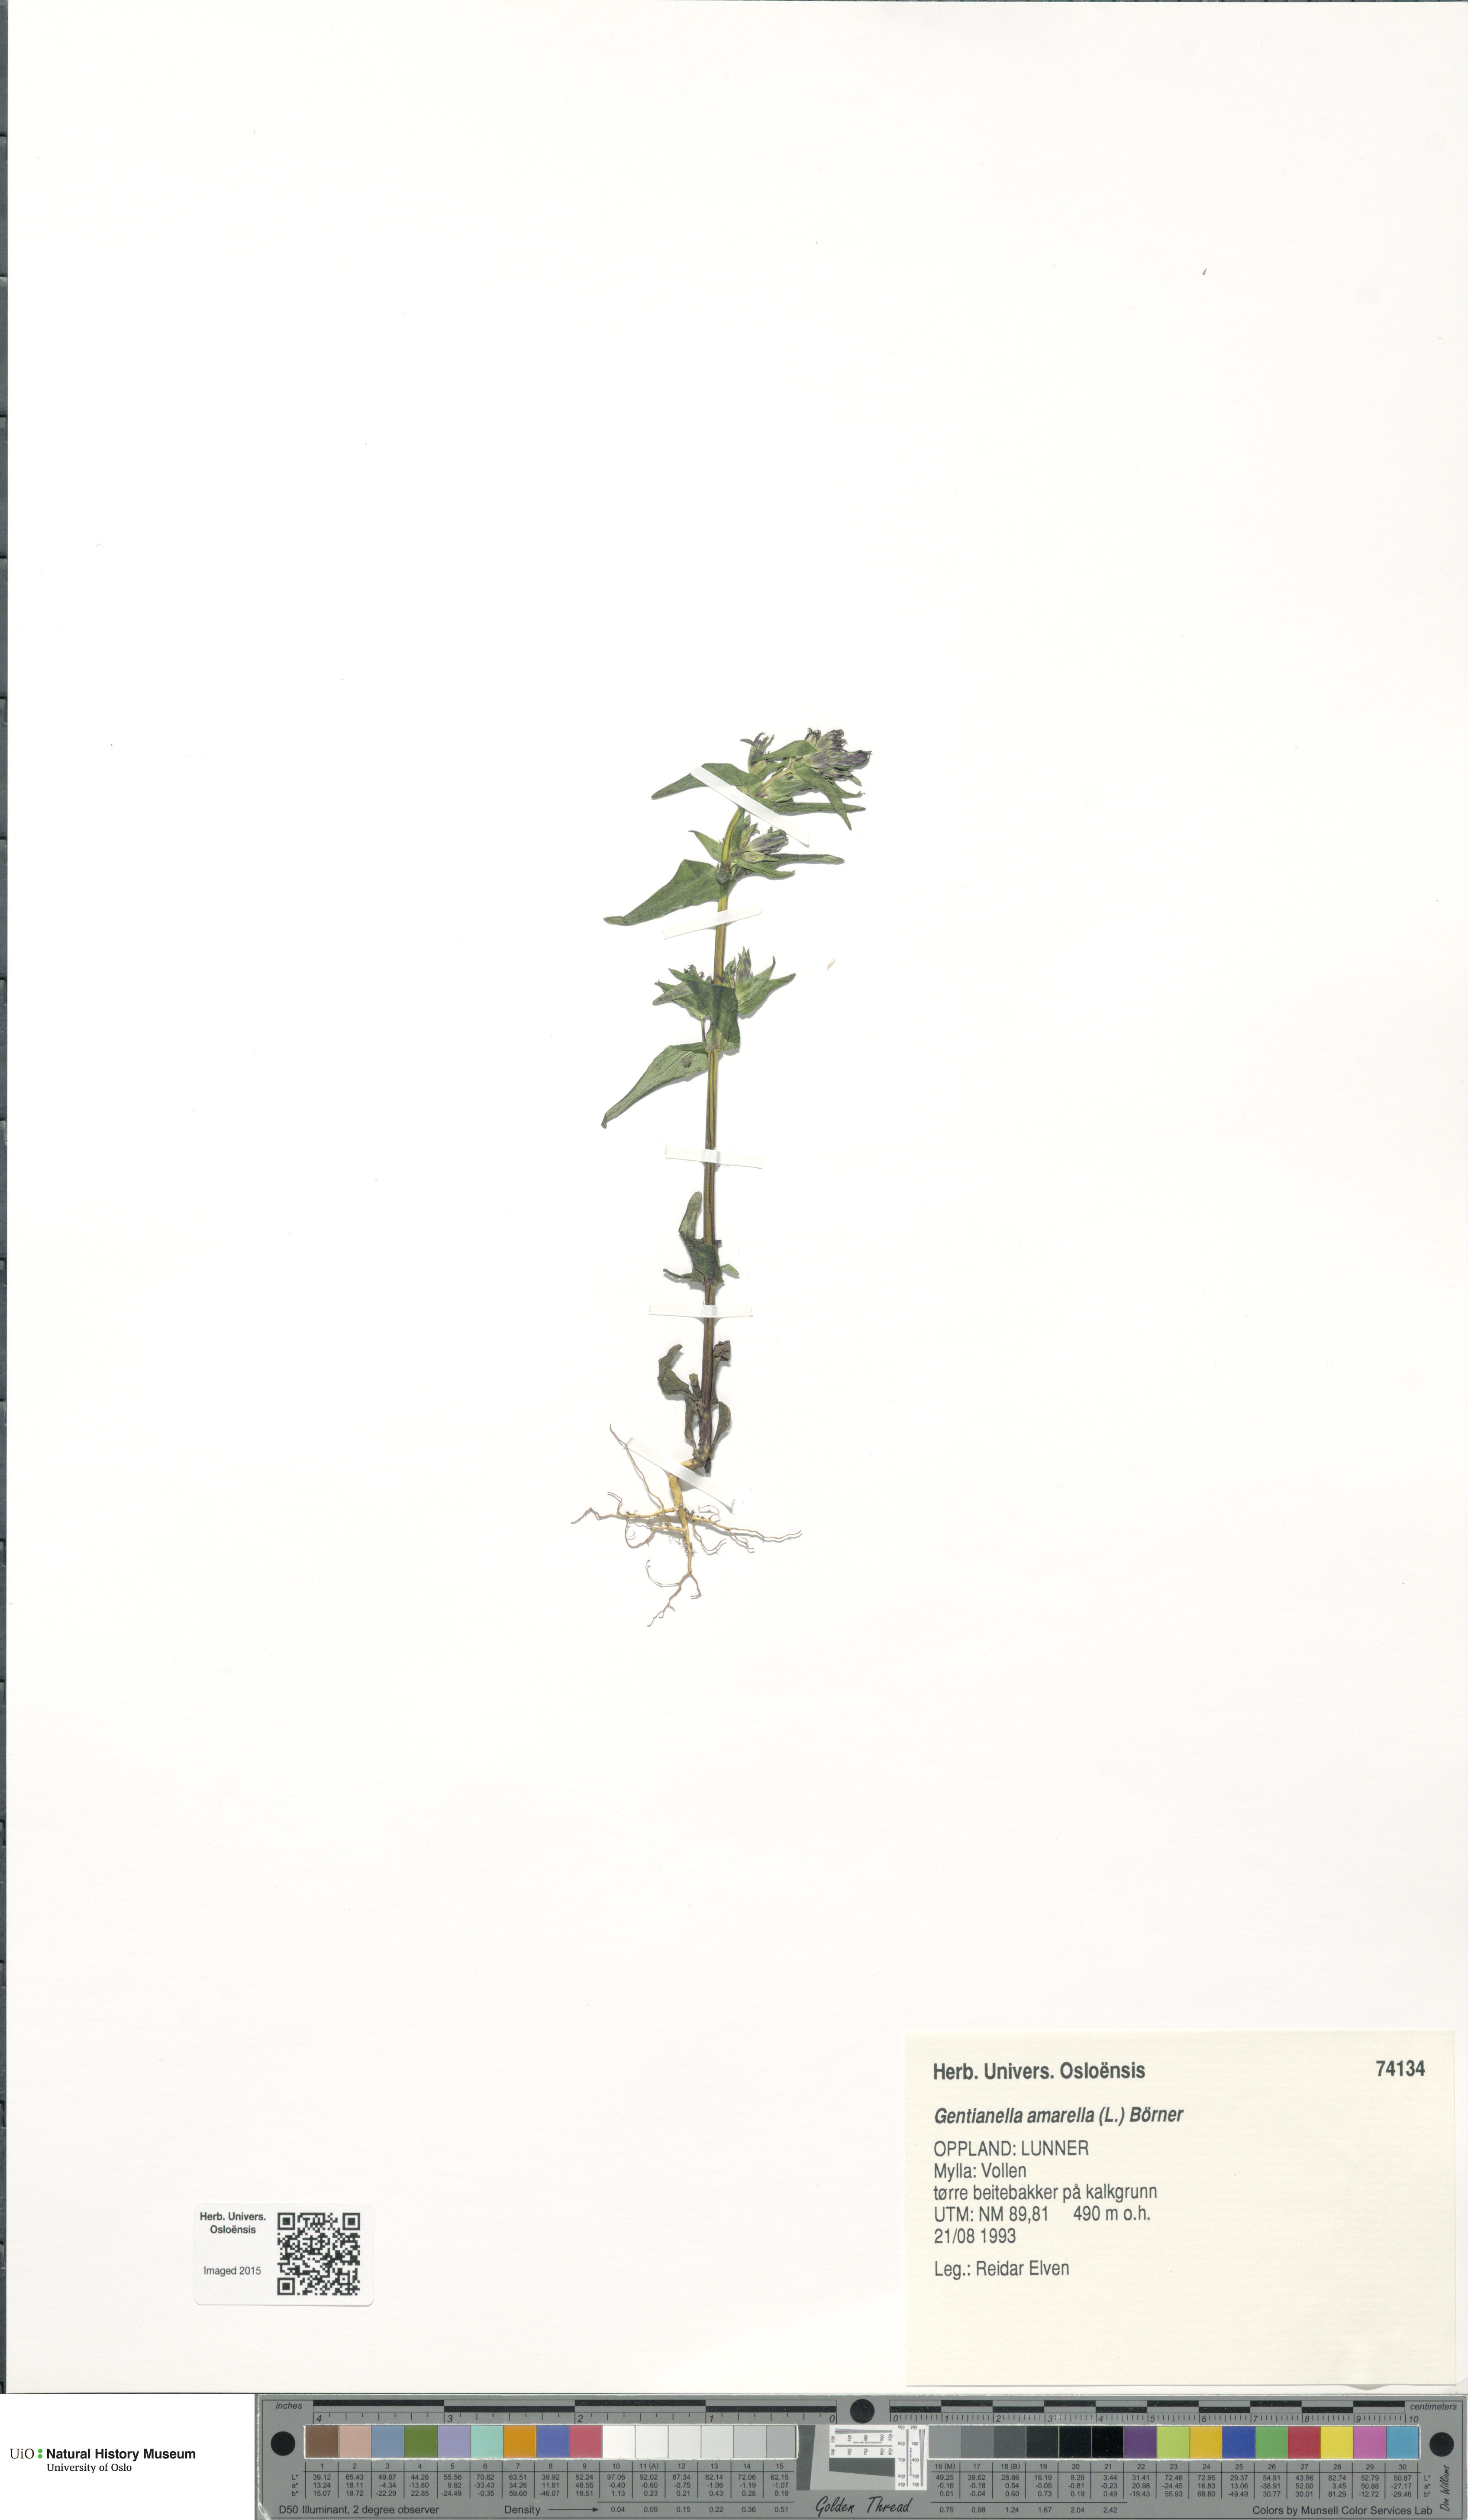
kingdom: Plantae
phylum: Tracheophyta
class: Magnoliopsida
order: Gentianales
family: Gentianaceae
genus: Gentianella
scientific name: Gentianella amarella
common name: Autumn gentian
